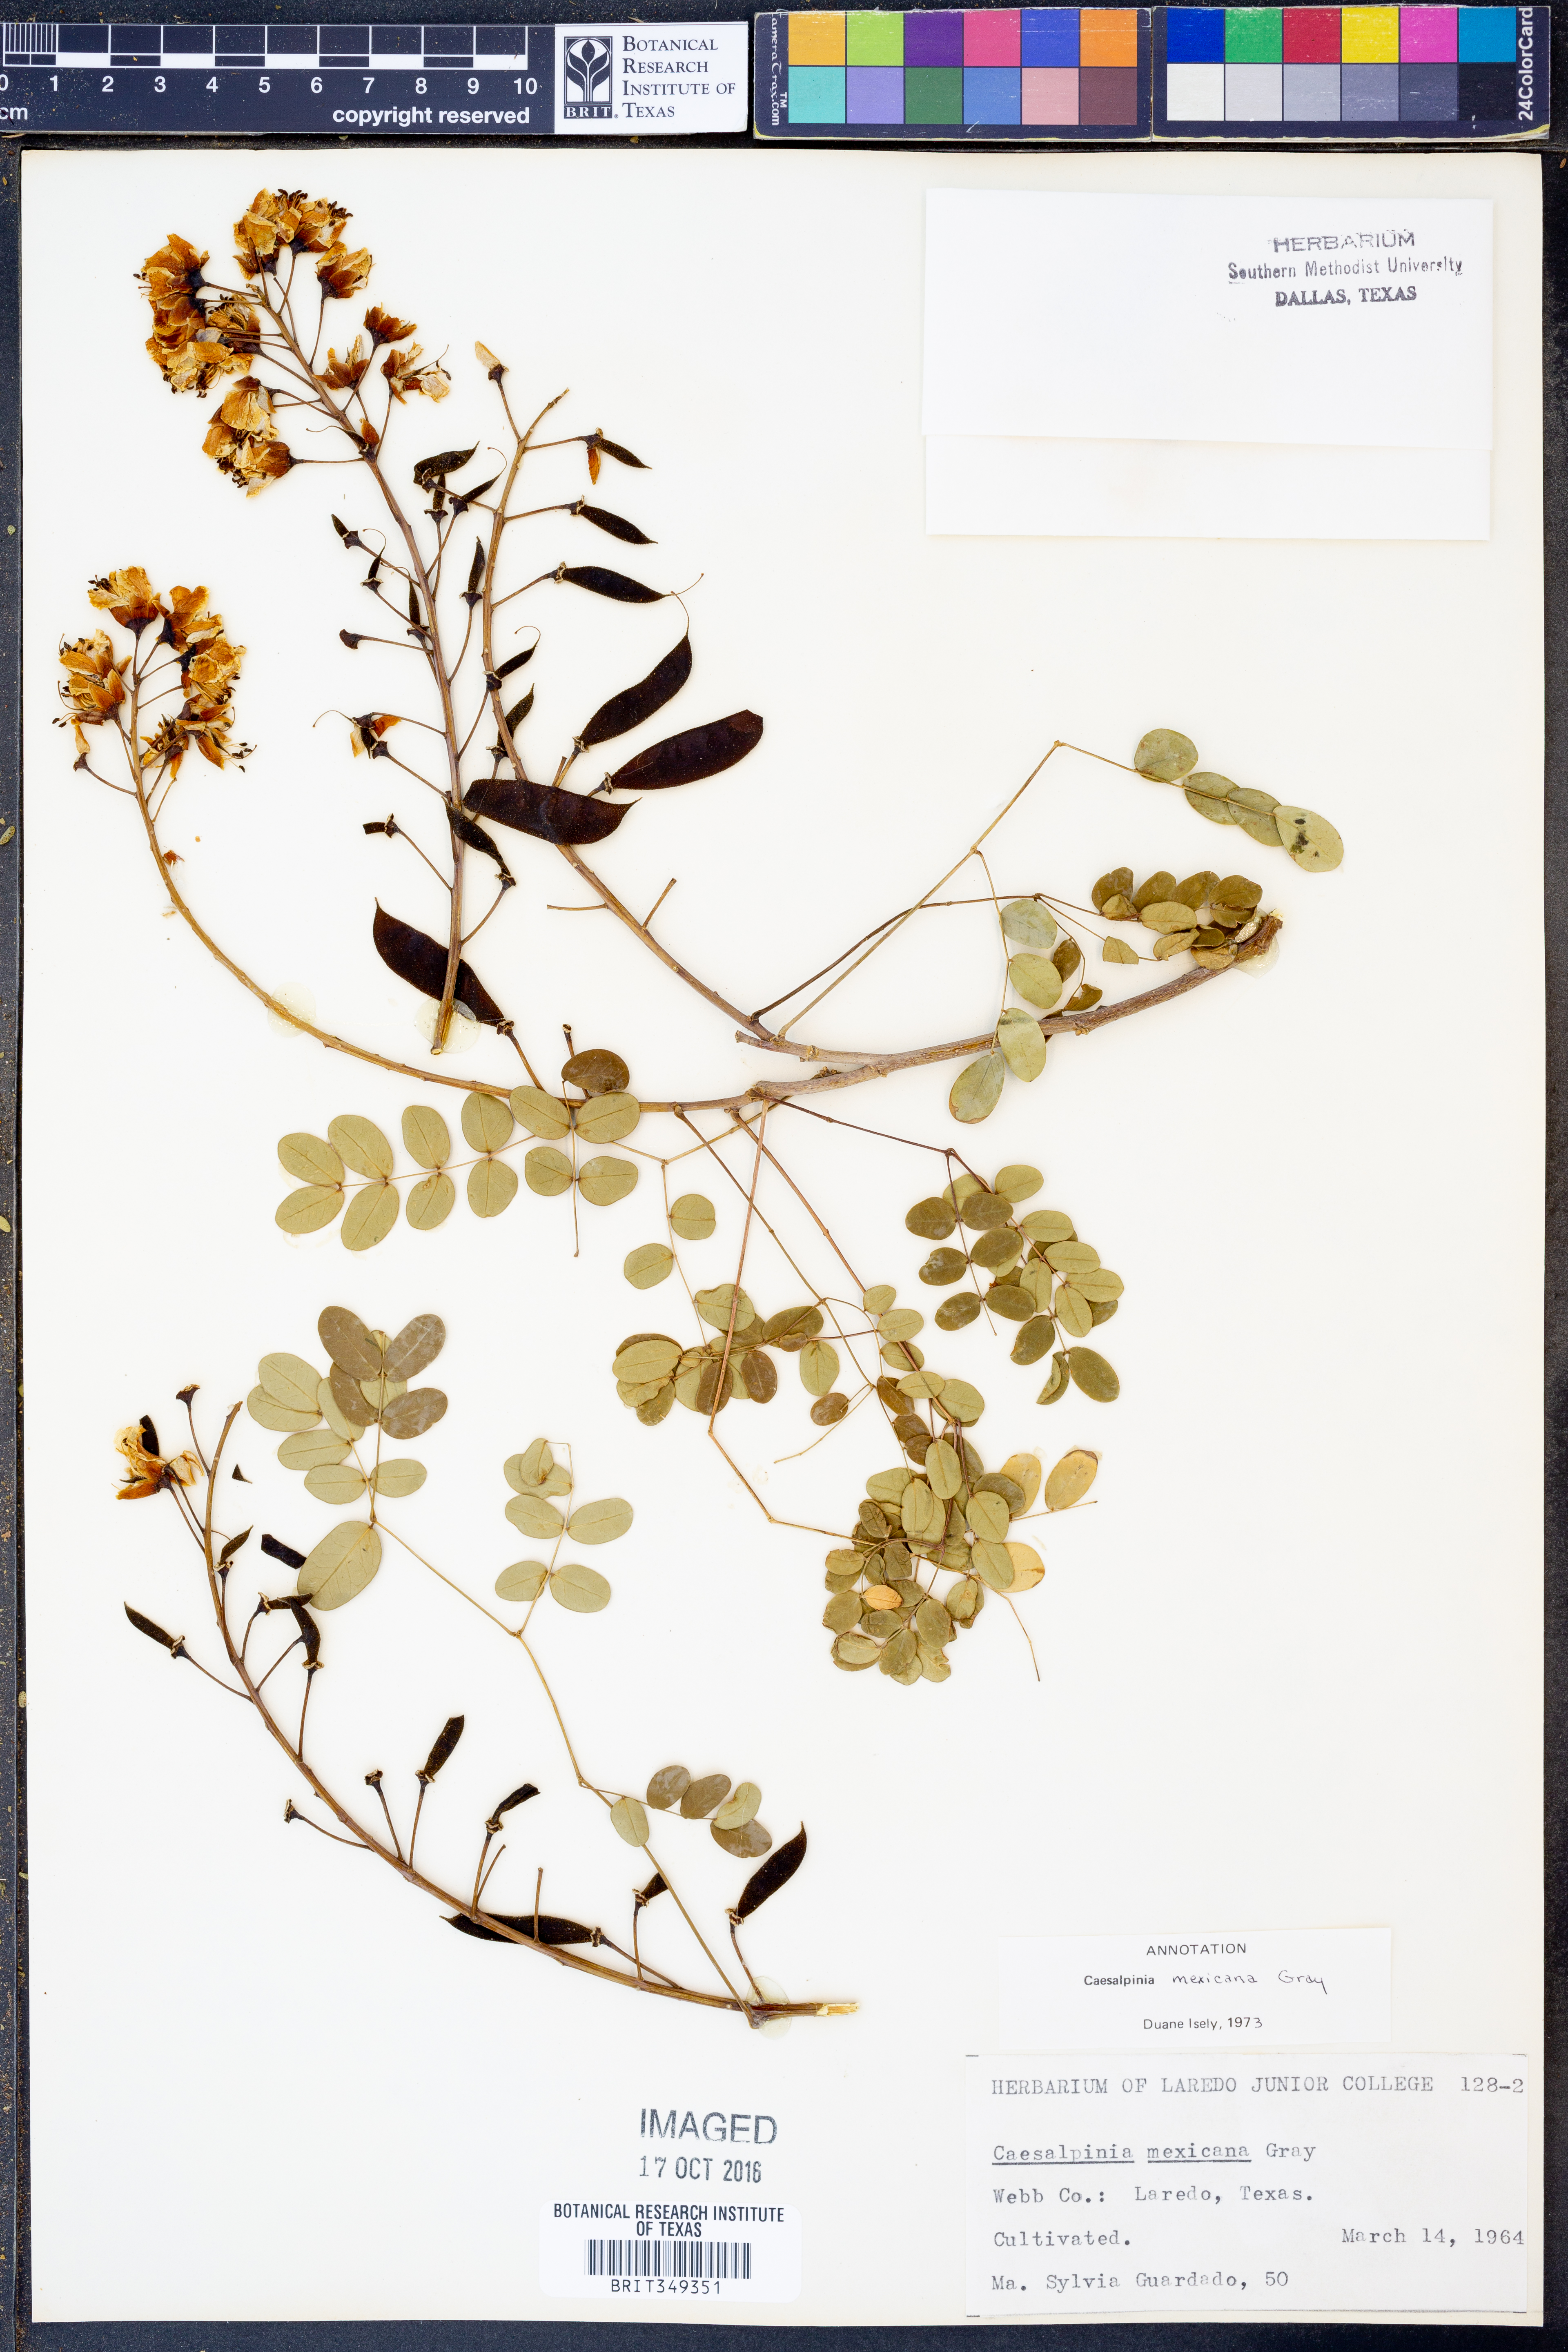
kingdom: Plantae
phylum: Tracheophyta
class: Magnoliopsida
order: Fabales
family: Fabaceae
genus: Erythrostemon
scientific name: Erythrostemon mexicanus
